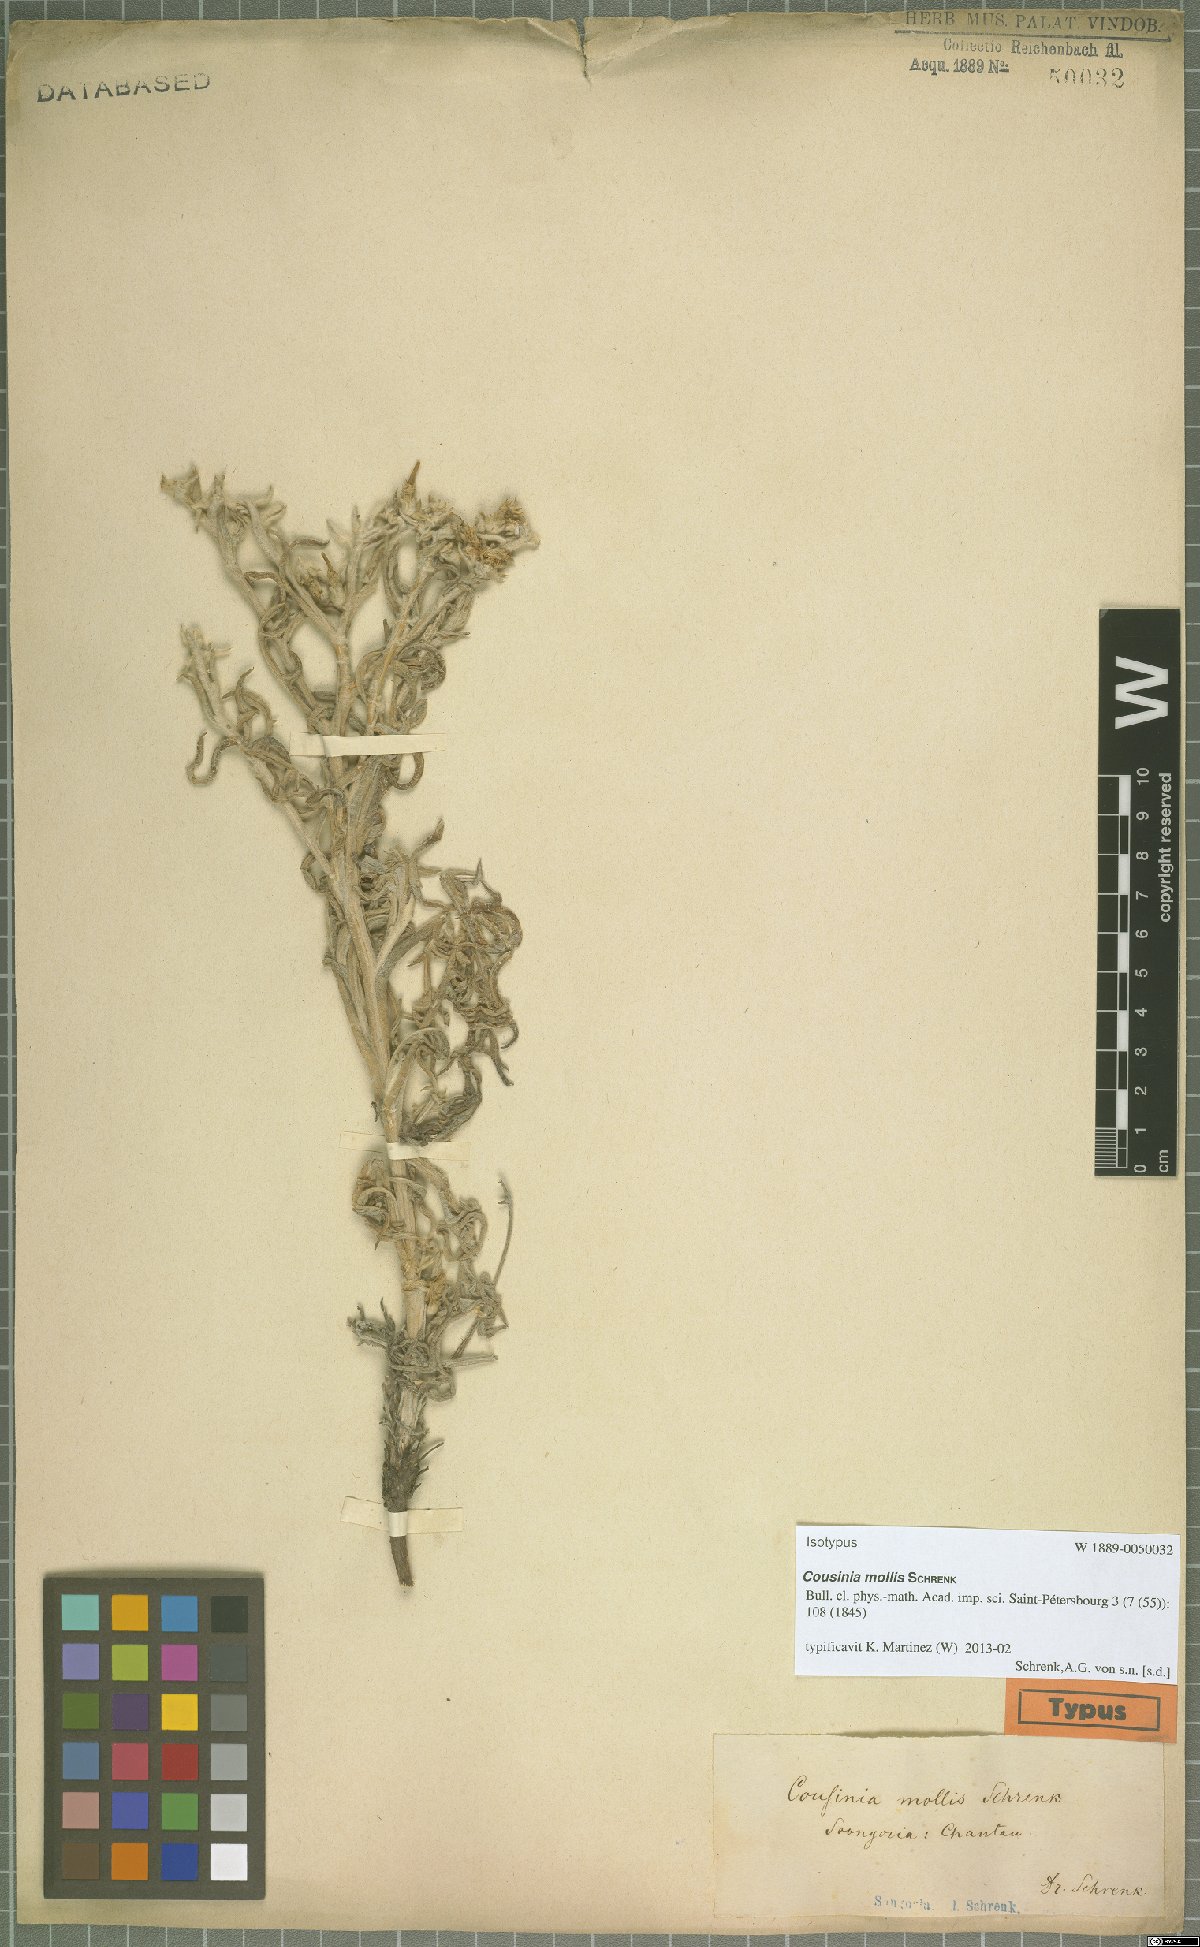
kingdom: Plantae
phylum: Tracheophyta
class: Magnoliopsida
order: Asterales
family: Asteraceae
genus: Cousinia
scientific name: Cousinia mollis
